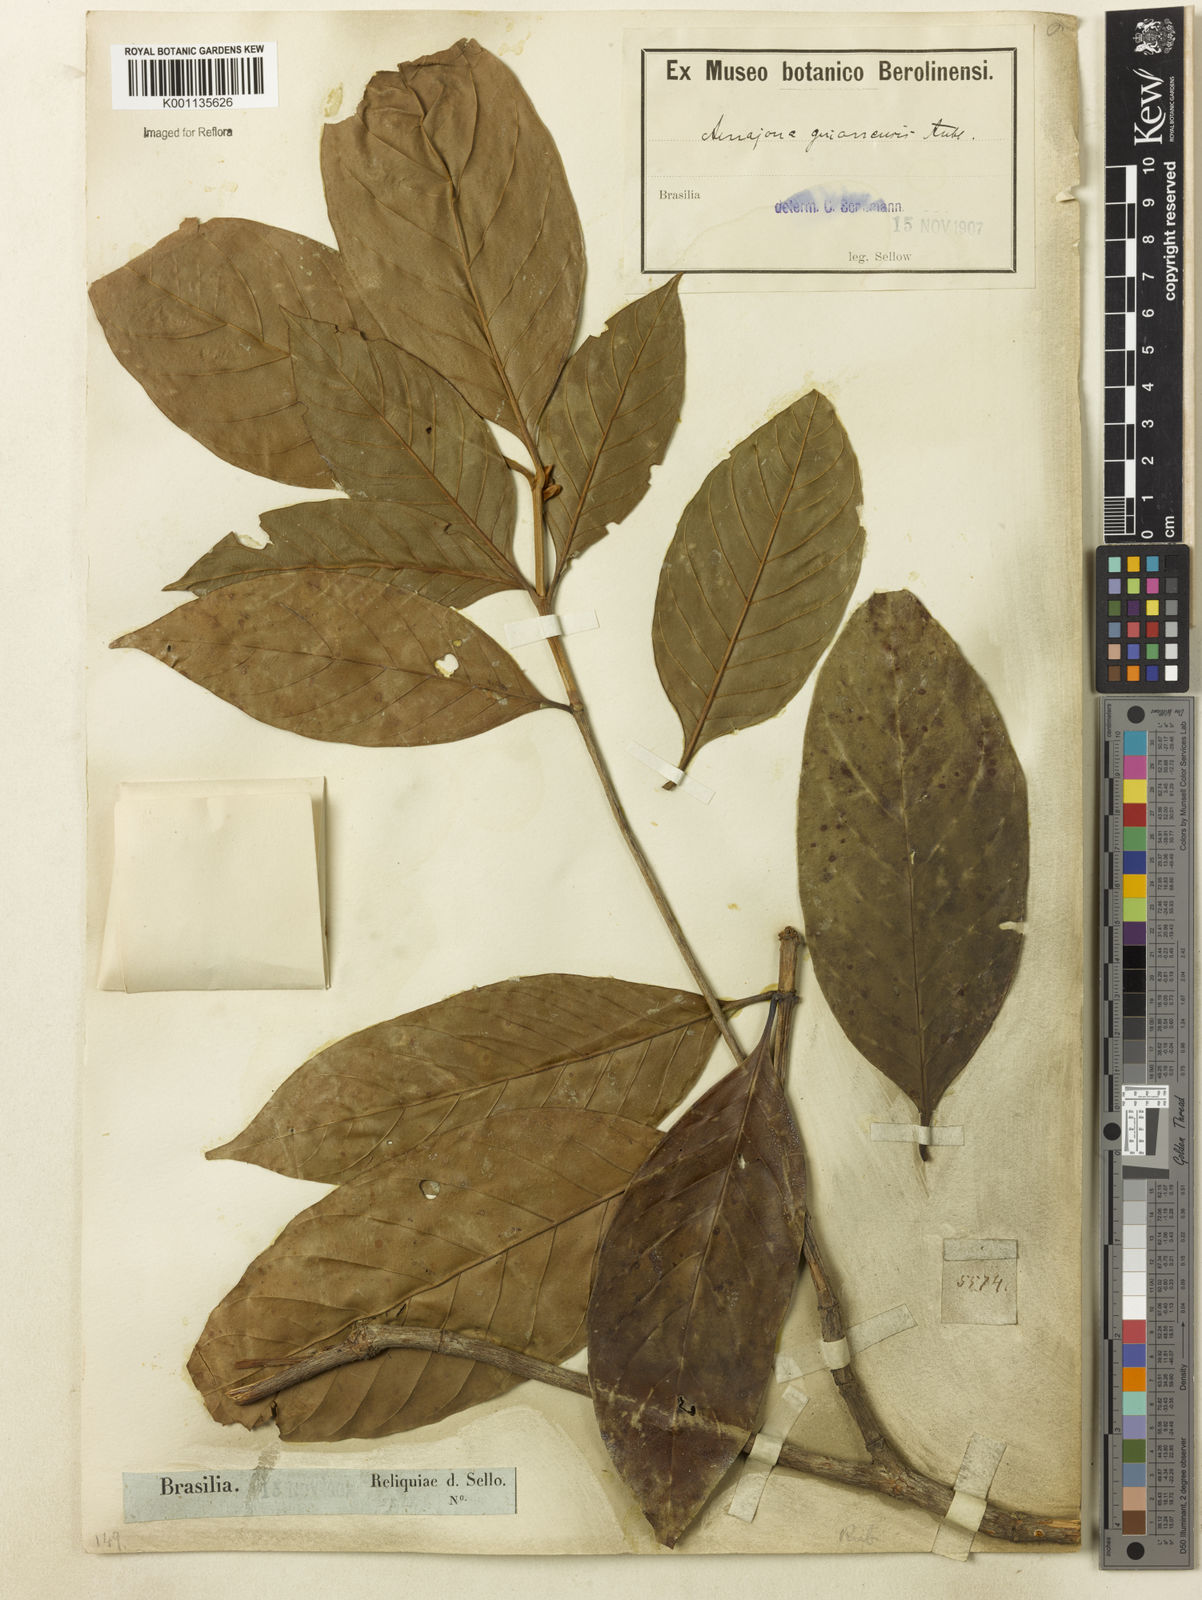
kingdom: Plantae
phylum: Tracheophyta
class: Magnoliopsida
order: Gentianales
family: Rubiaceae
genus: Amaioua
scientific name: Amaioua intermedia
